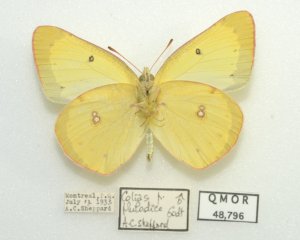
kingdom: Animalia
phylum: Arthropoda
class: Insecta
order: Lepidoptera
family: Pieridae
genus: Colias
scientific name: Colias philodice
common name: Clouded Sulphur
